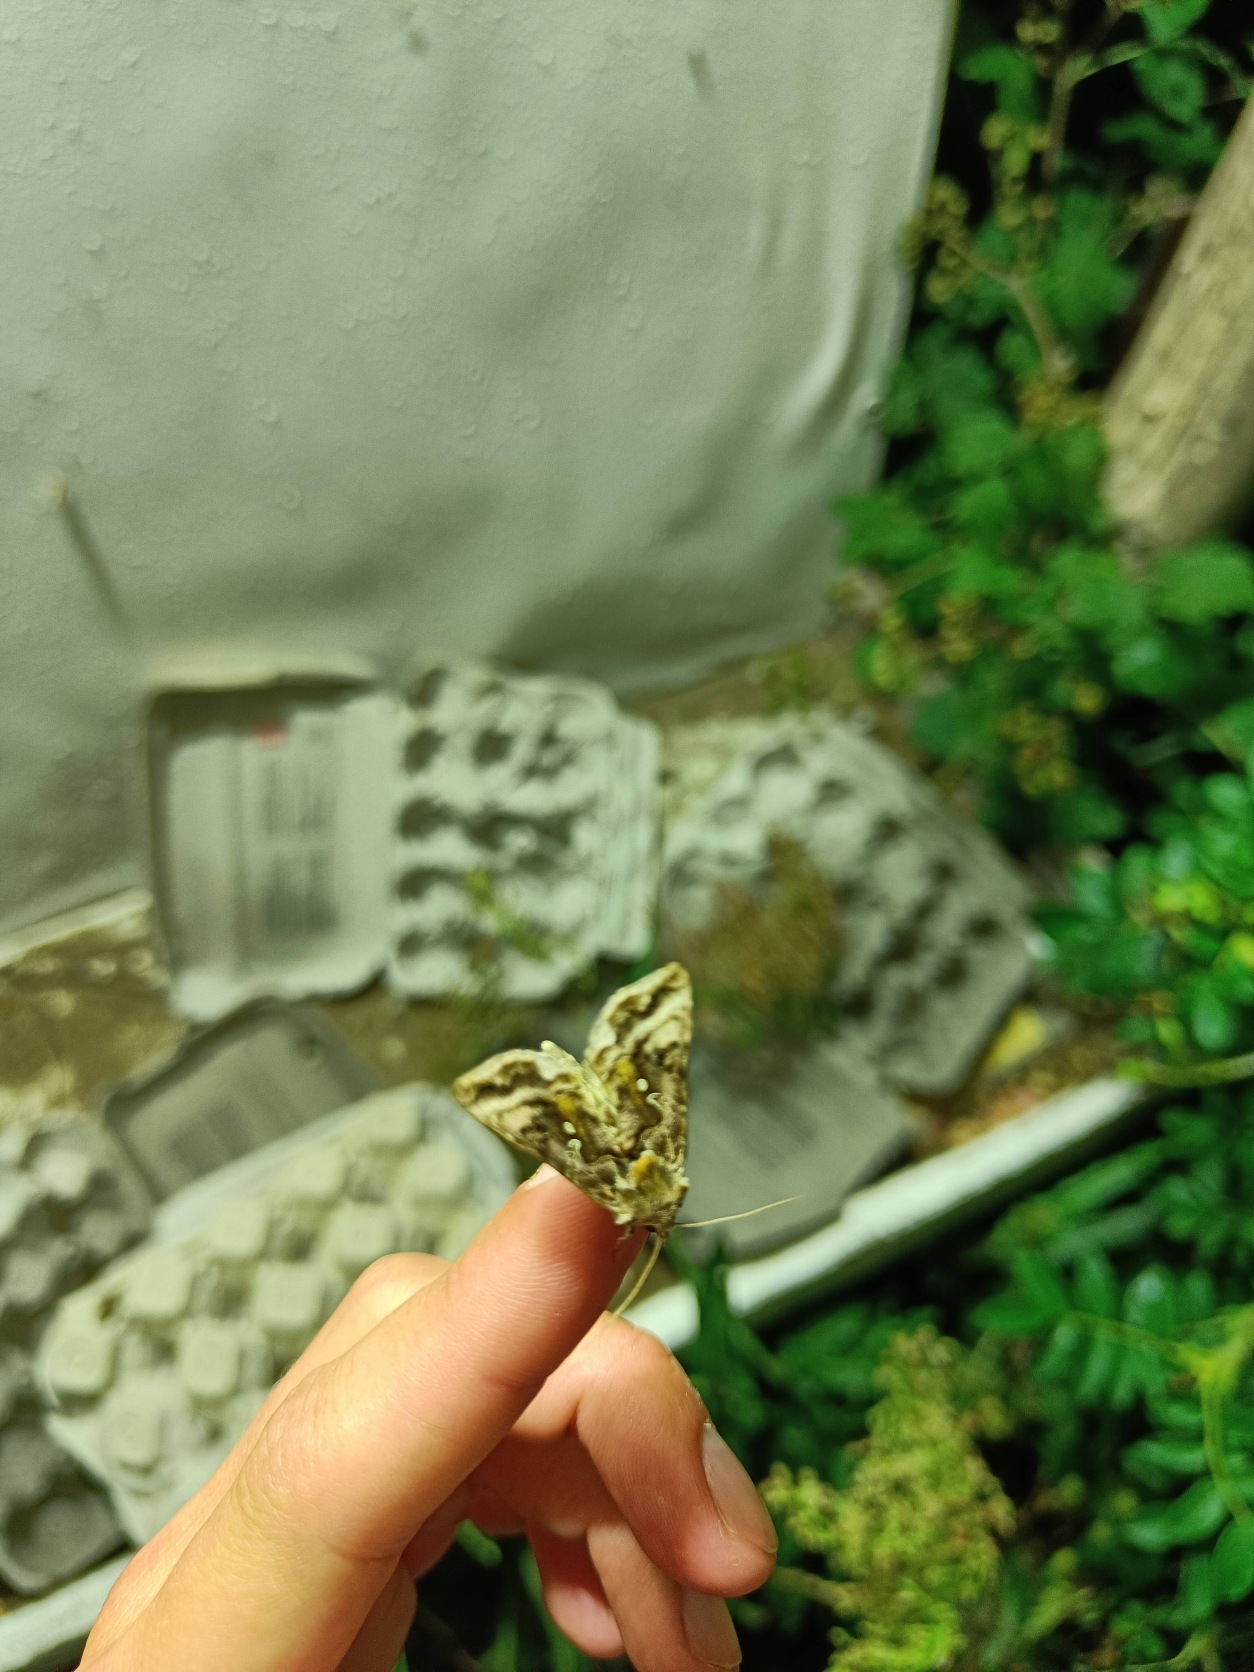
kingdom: Animalia
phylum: Arthropoda
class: Insecta
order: Lepidoptera
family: Noctuidae
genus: Autographa
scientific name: Autographa gamma
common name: Gammaugle
